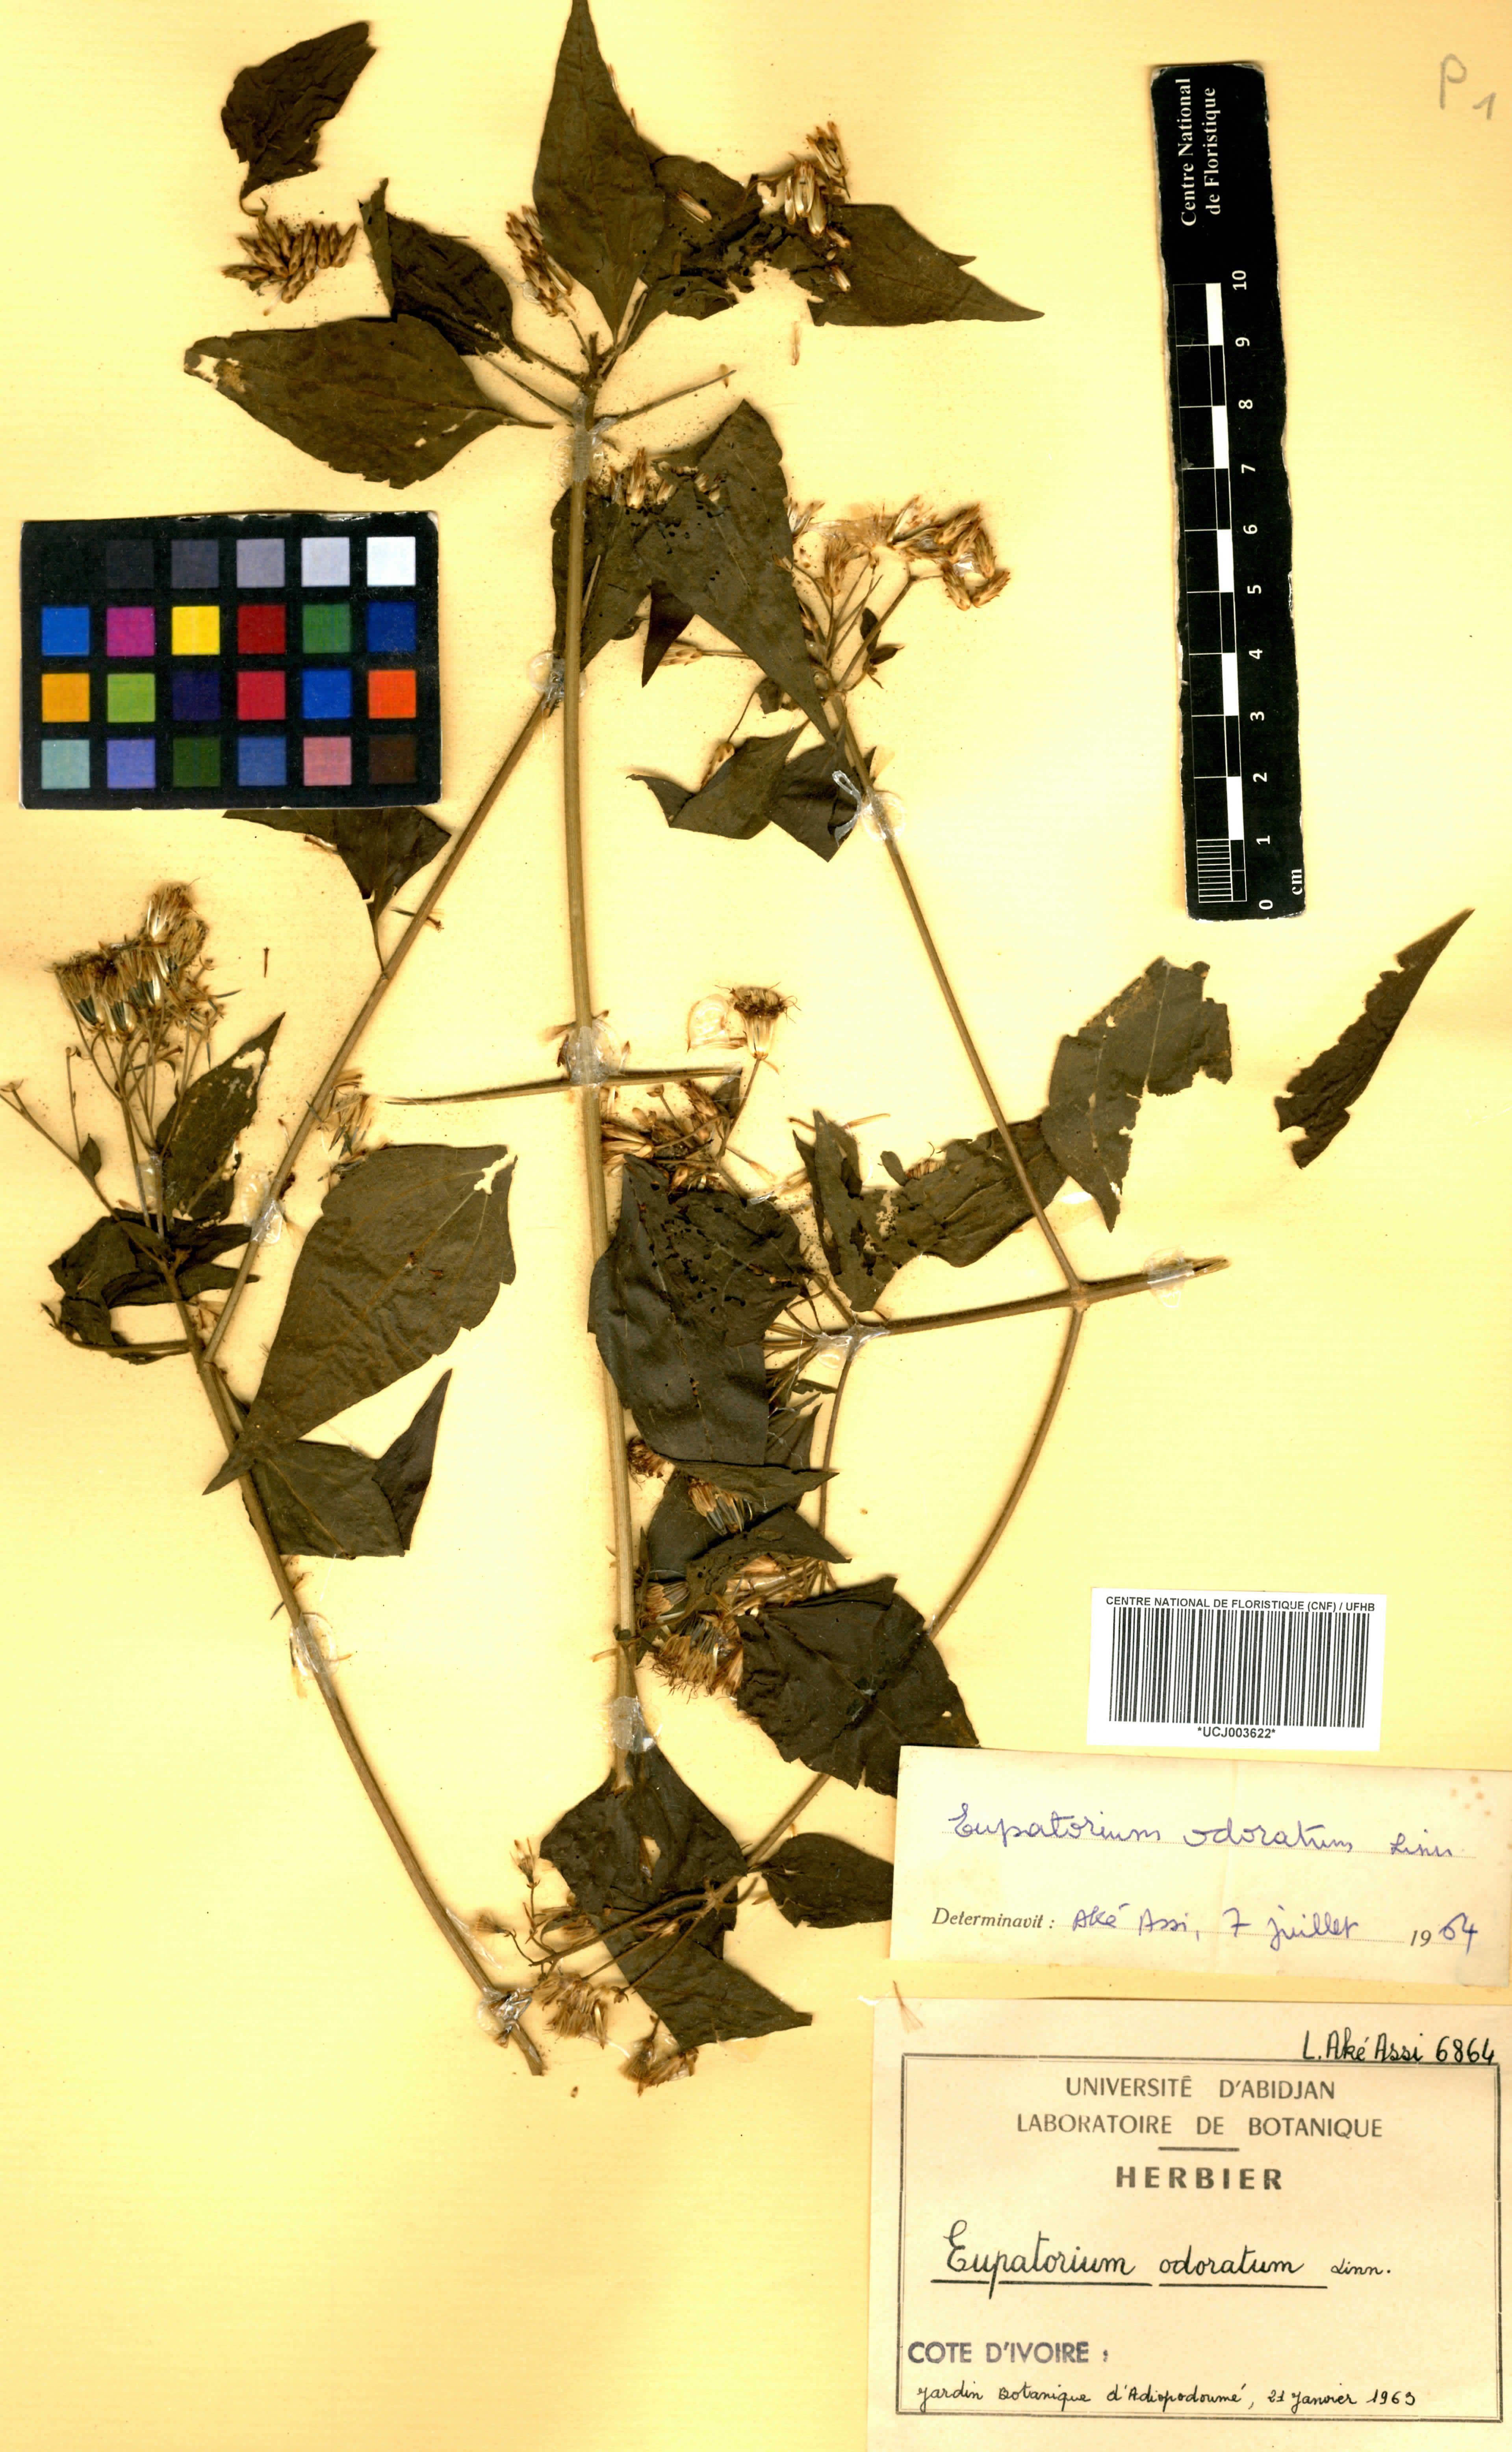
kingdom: Plantae
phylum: Tracheophyta
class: Magnoliopsida
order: Asterales
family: Asteraceae
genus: Chromolaena
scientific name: Chromolaena odorata
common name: Siamweed
